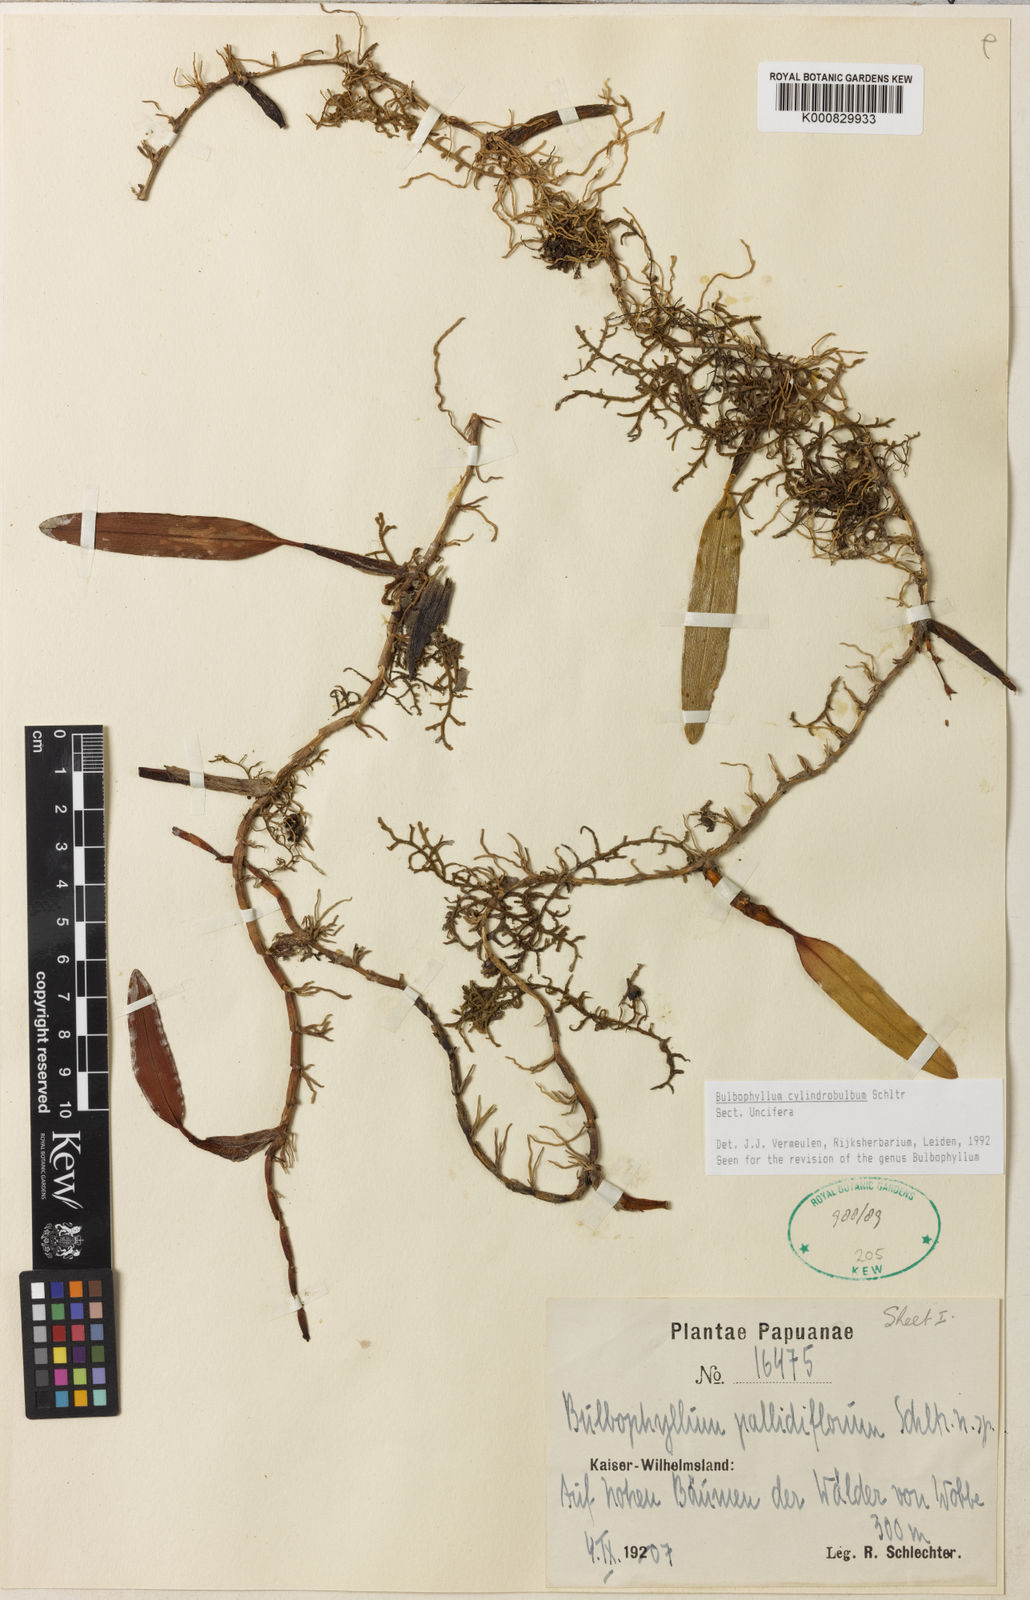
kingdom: Plantae
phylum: Tracheophyta
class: Liliopsida
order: Asparagales
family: Orchidaceae
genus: Bulbophyllum
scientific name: Bulbophyllum cylindrobulbum
